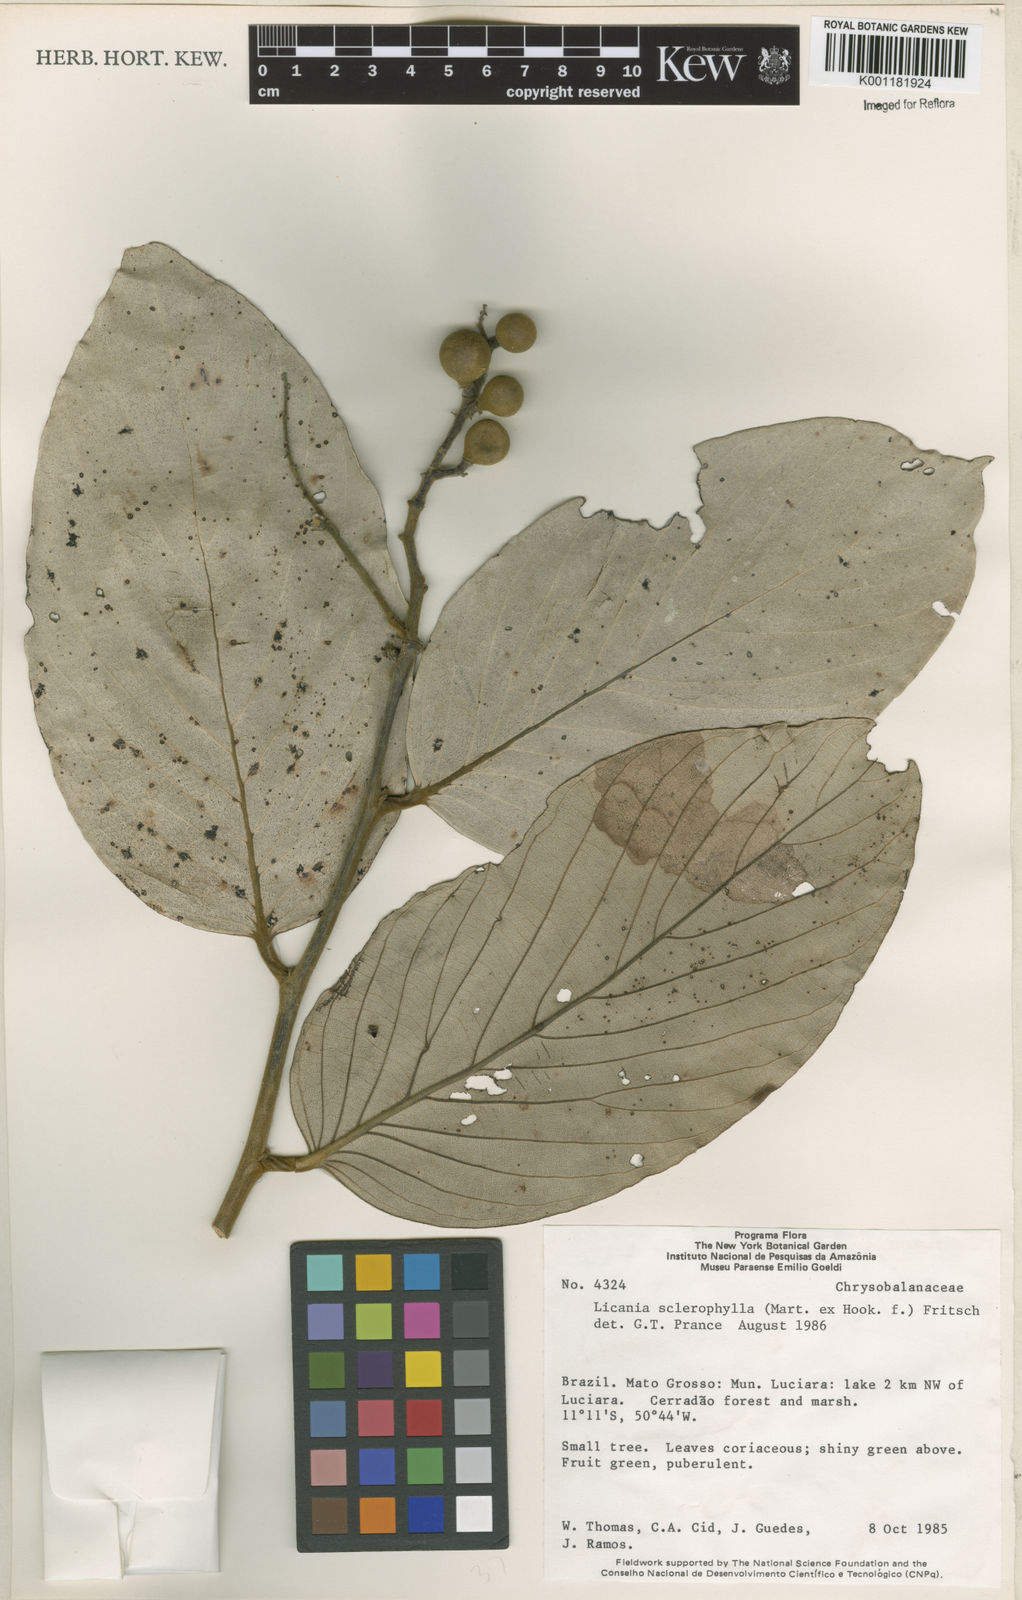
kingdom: Plantae
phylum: Tracheophyta
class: Magnoliopsida
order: Malpighiales
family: Chrysobalanaceae
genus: Leptobalanus
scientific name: Leptobalanus sclerophyllus
